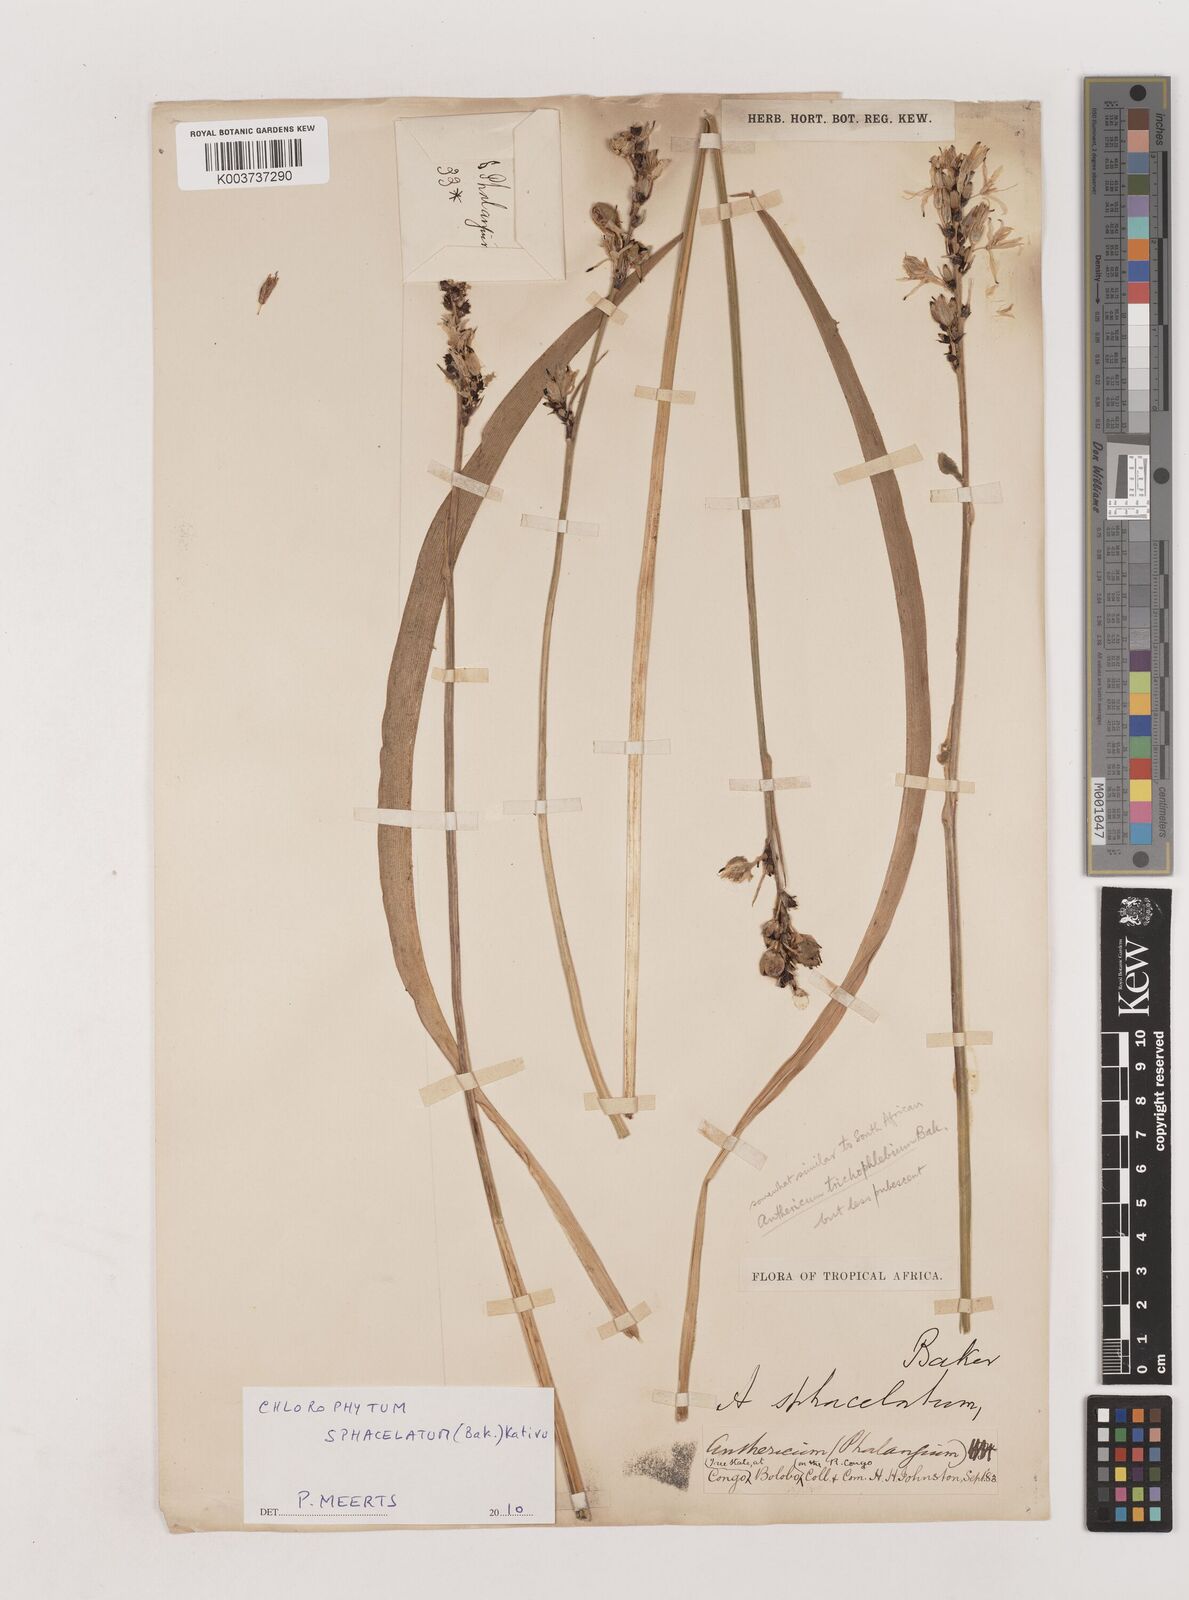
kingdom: Plantae
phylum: Tracheophyta
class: Liliopsida
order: Asparagales
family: Asparagaceae
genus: Chlorophytum
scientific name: Chlorophytum sphacelatum
